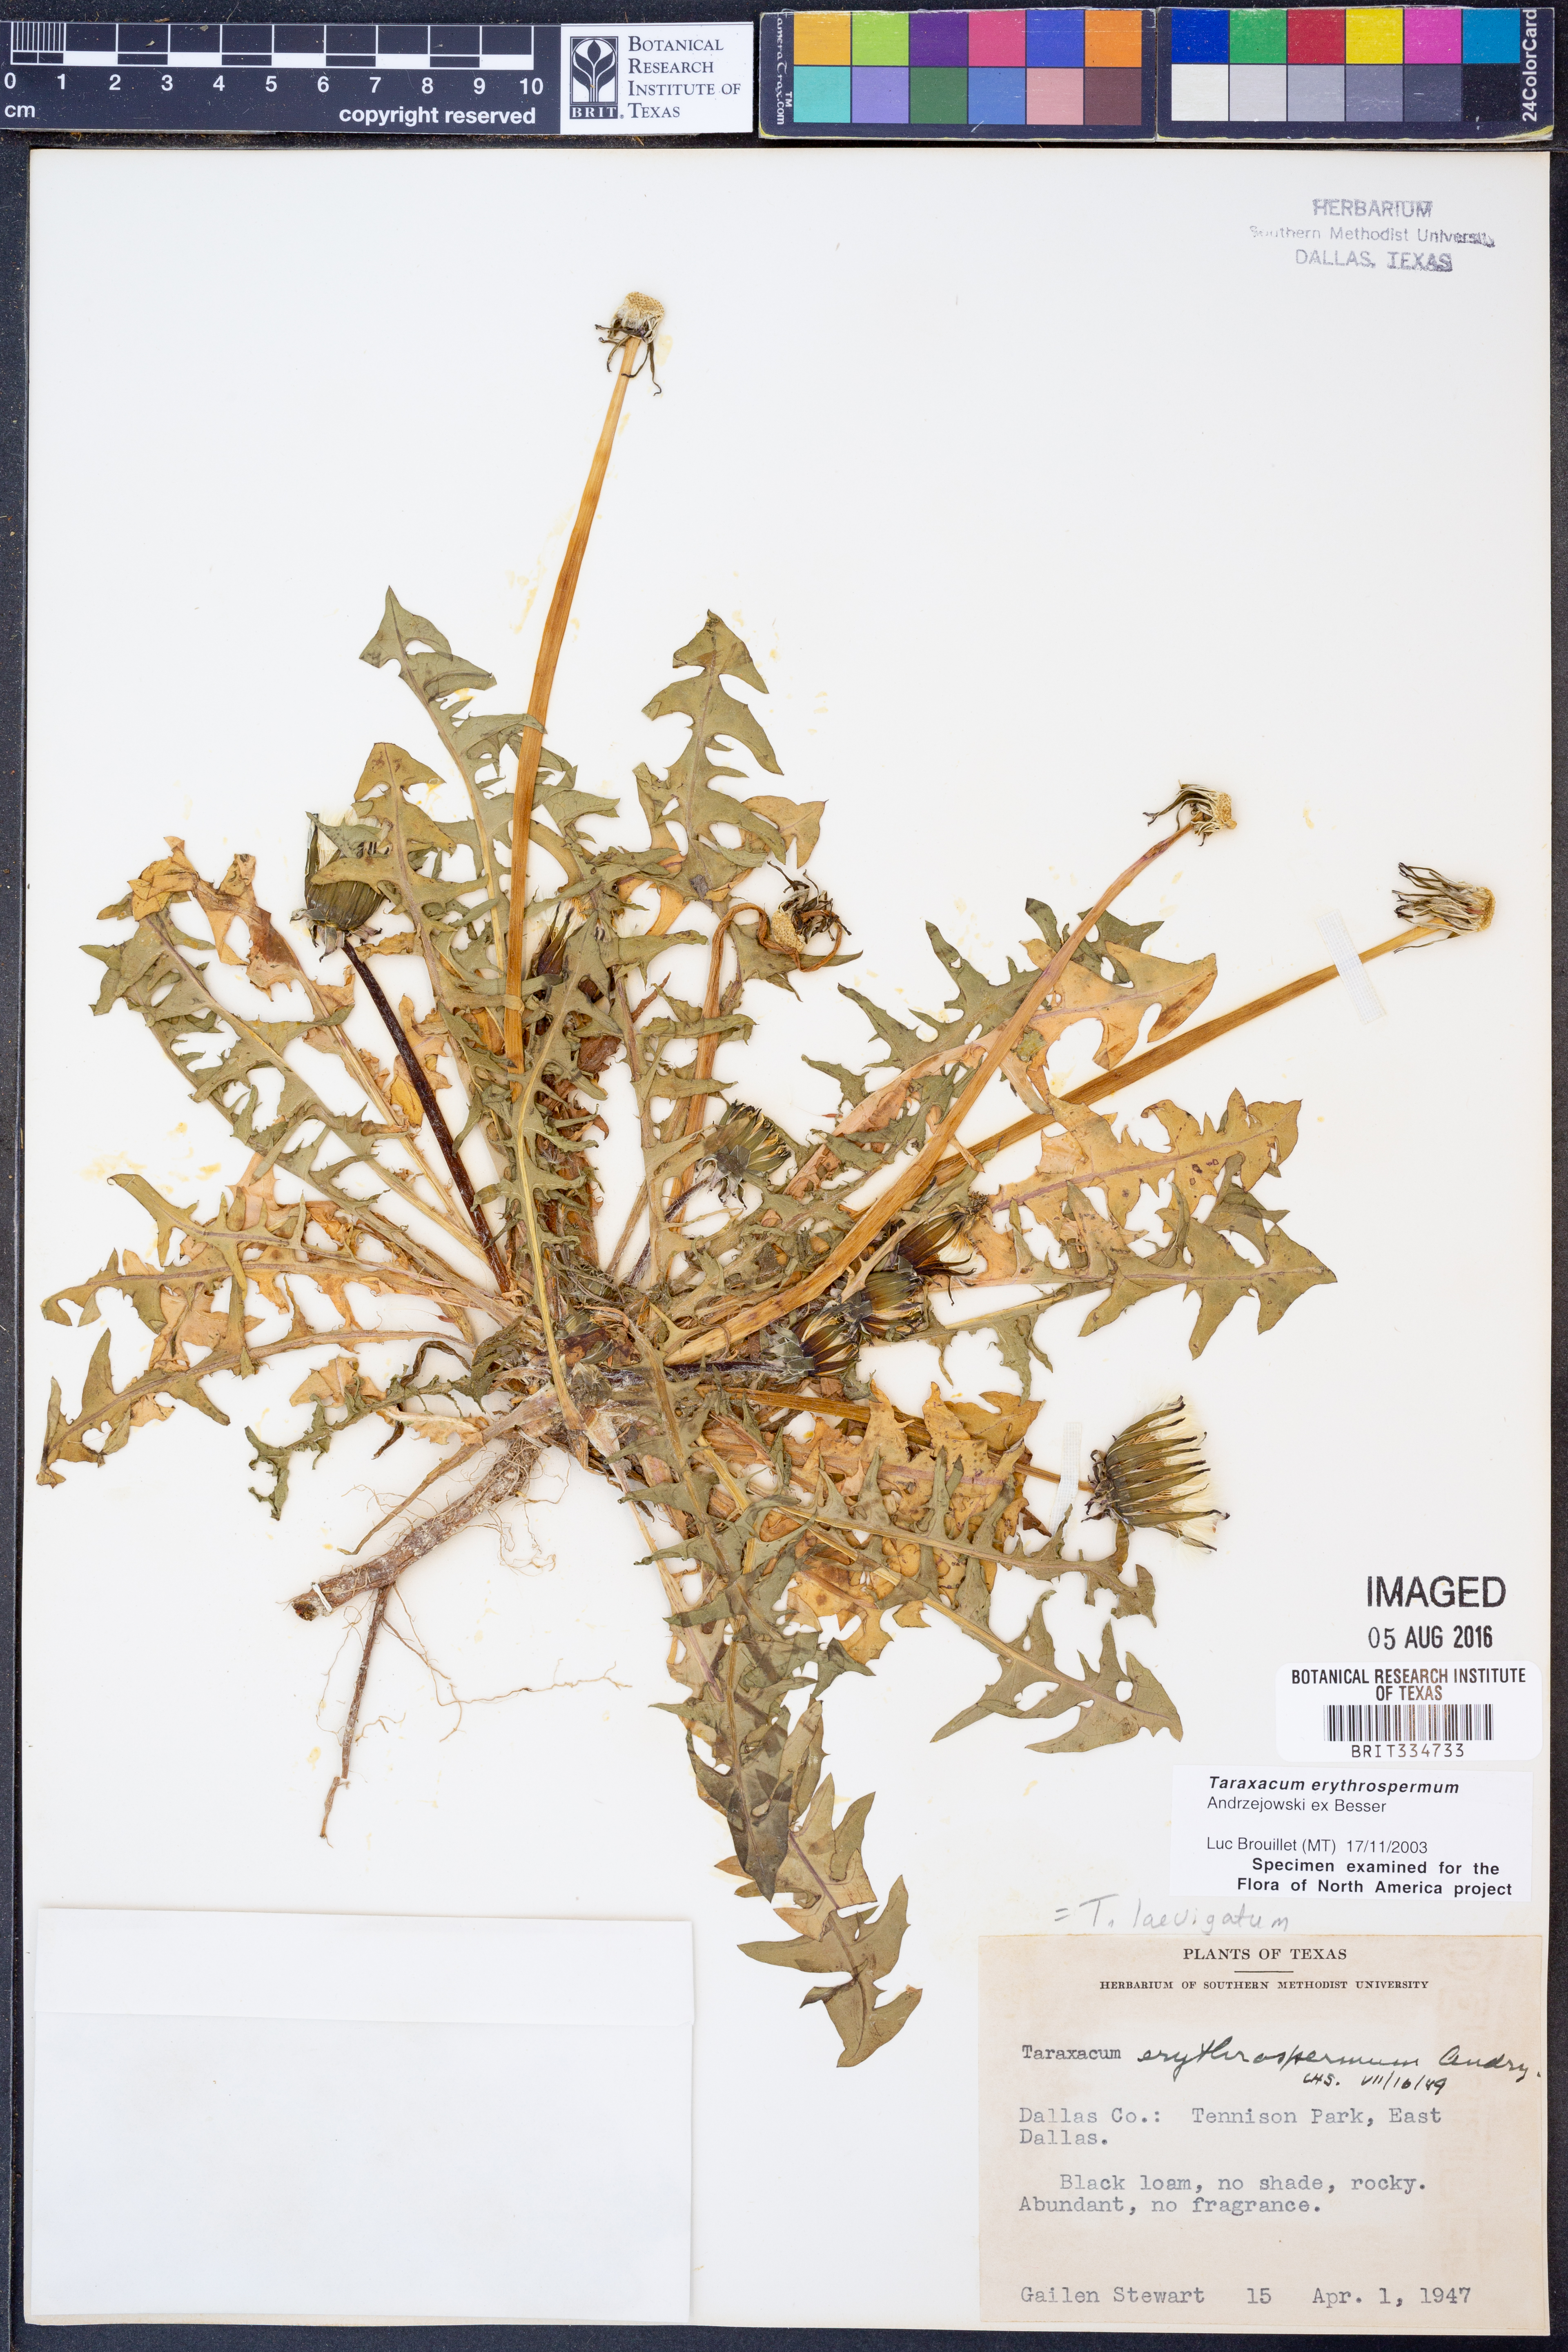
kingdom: Plantae
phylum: Tracheophyta
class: Magnoliopsida
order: Asterales
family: Asteraceae
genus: Taraxacum
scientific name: Taraxacum erythrospermum
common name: Rock dandelion
